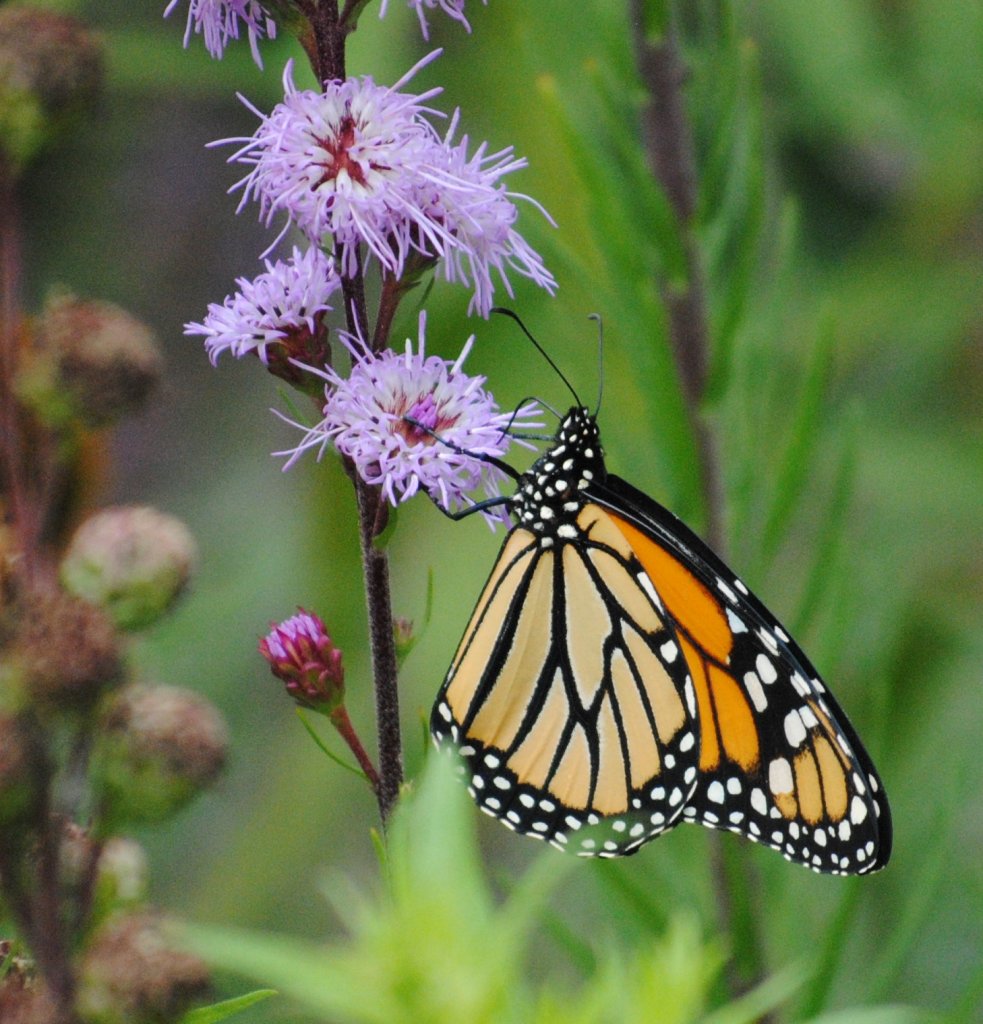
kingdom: Animalia
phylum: Arthropoda
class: Insecta
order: Lepidoptera
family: Nymphalidae
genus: Danaus
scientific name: Danaus plexippus
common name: Monarch
